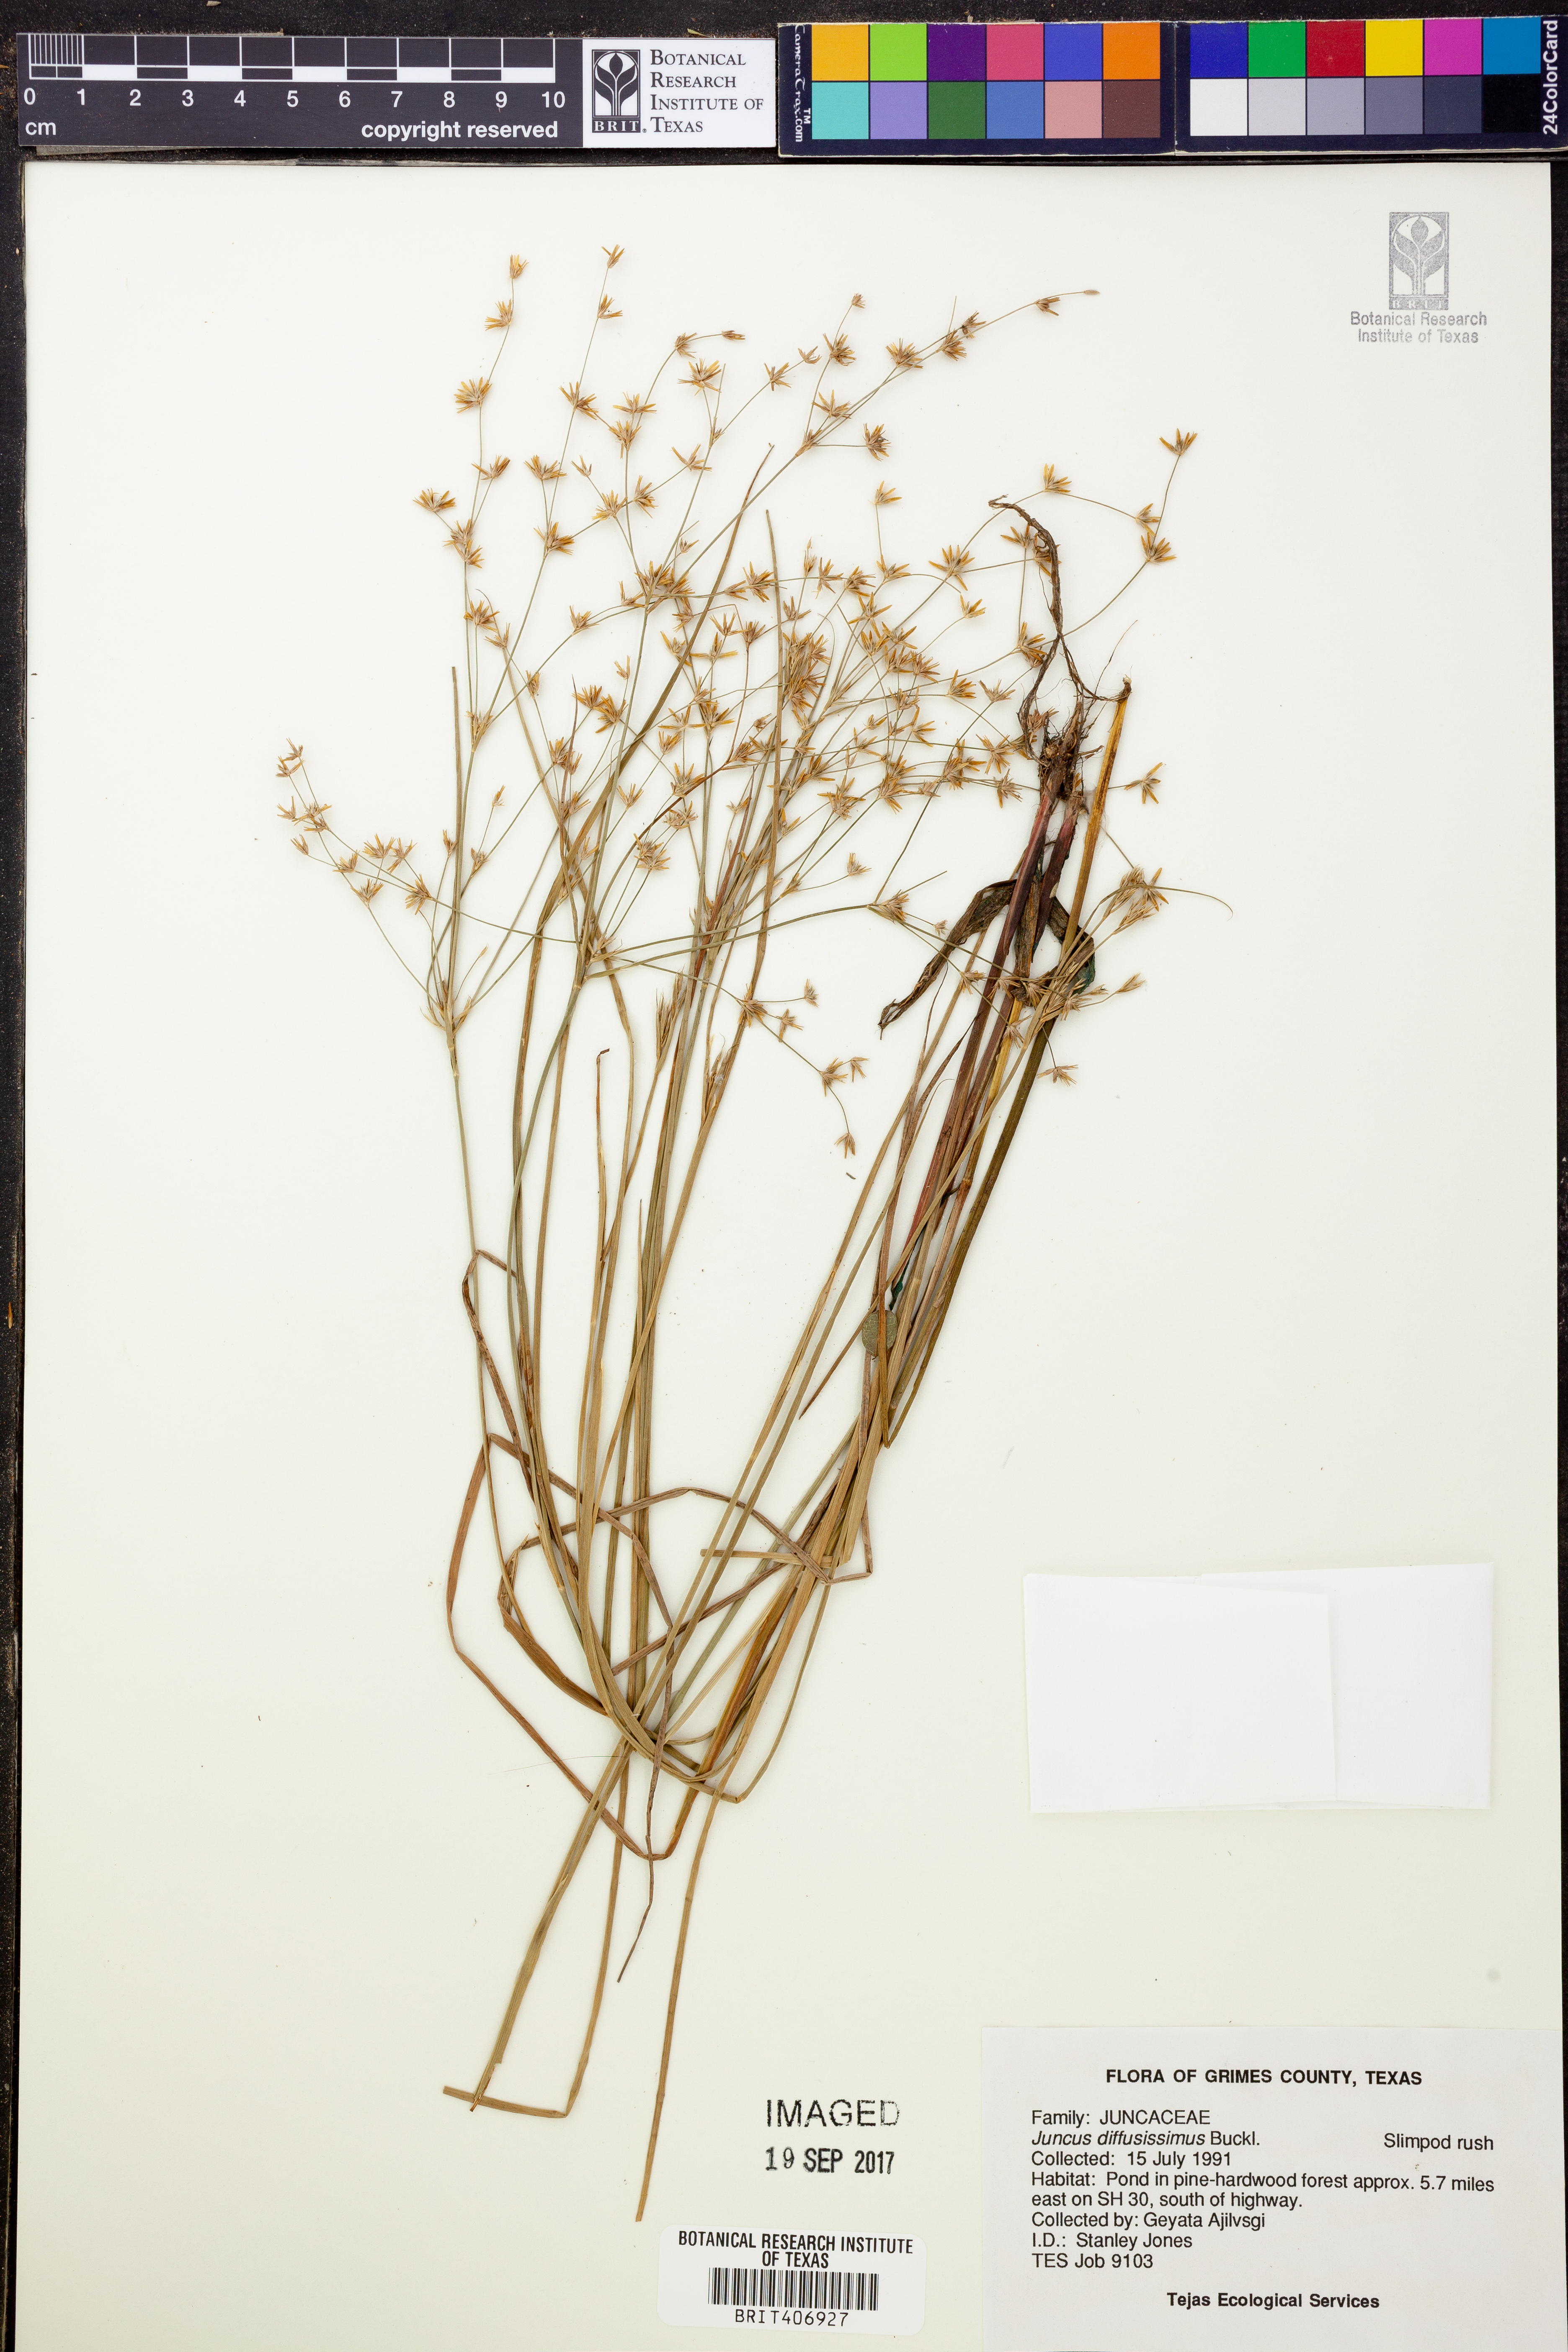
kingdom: Plantae
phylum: Tracheophyta
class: Liliopsida
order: Poales
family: Juncaceae
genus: Juncus
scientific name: Juncus diffusissimus
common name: Slimpod rush
